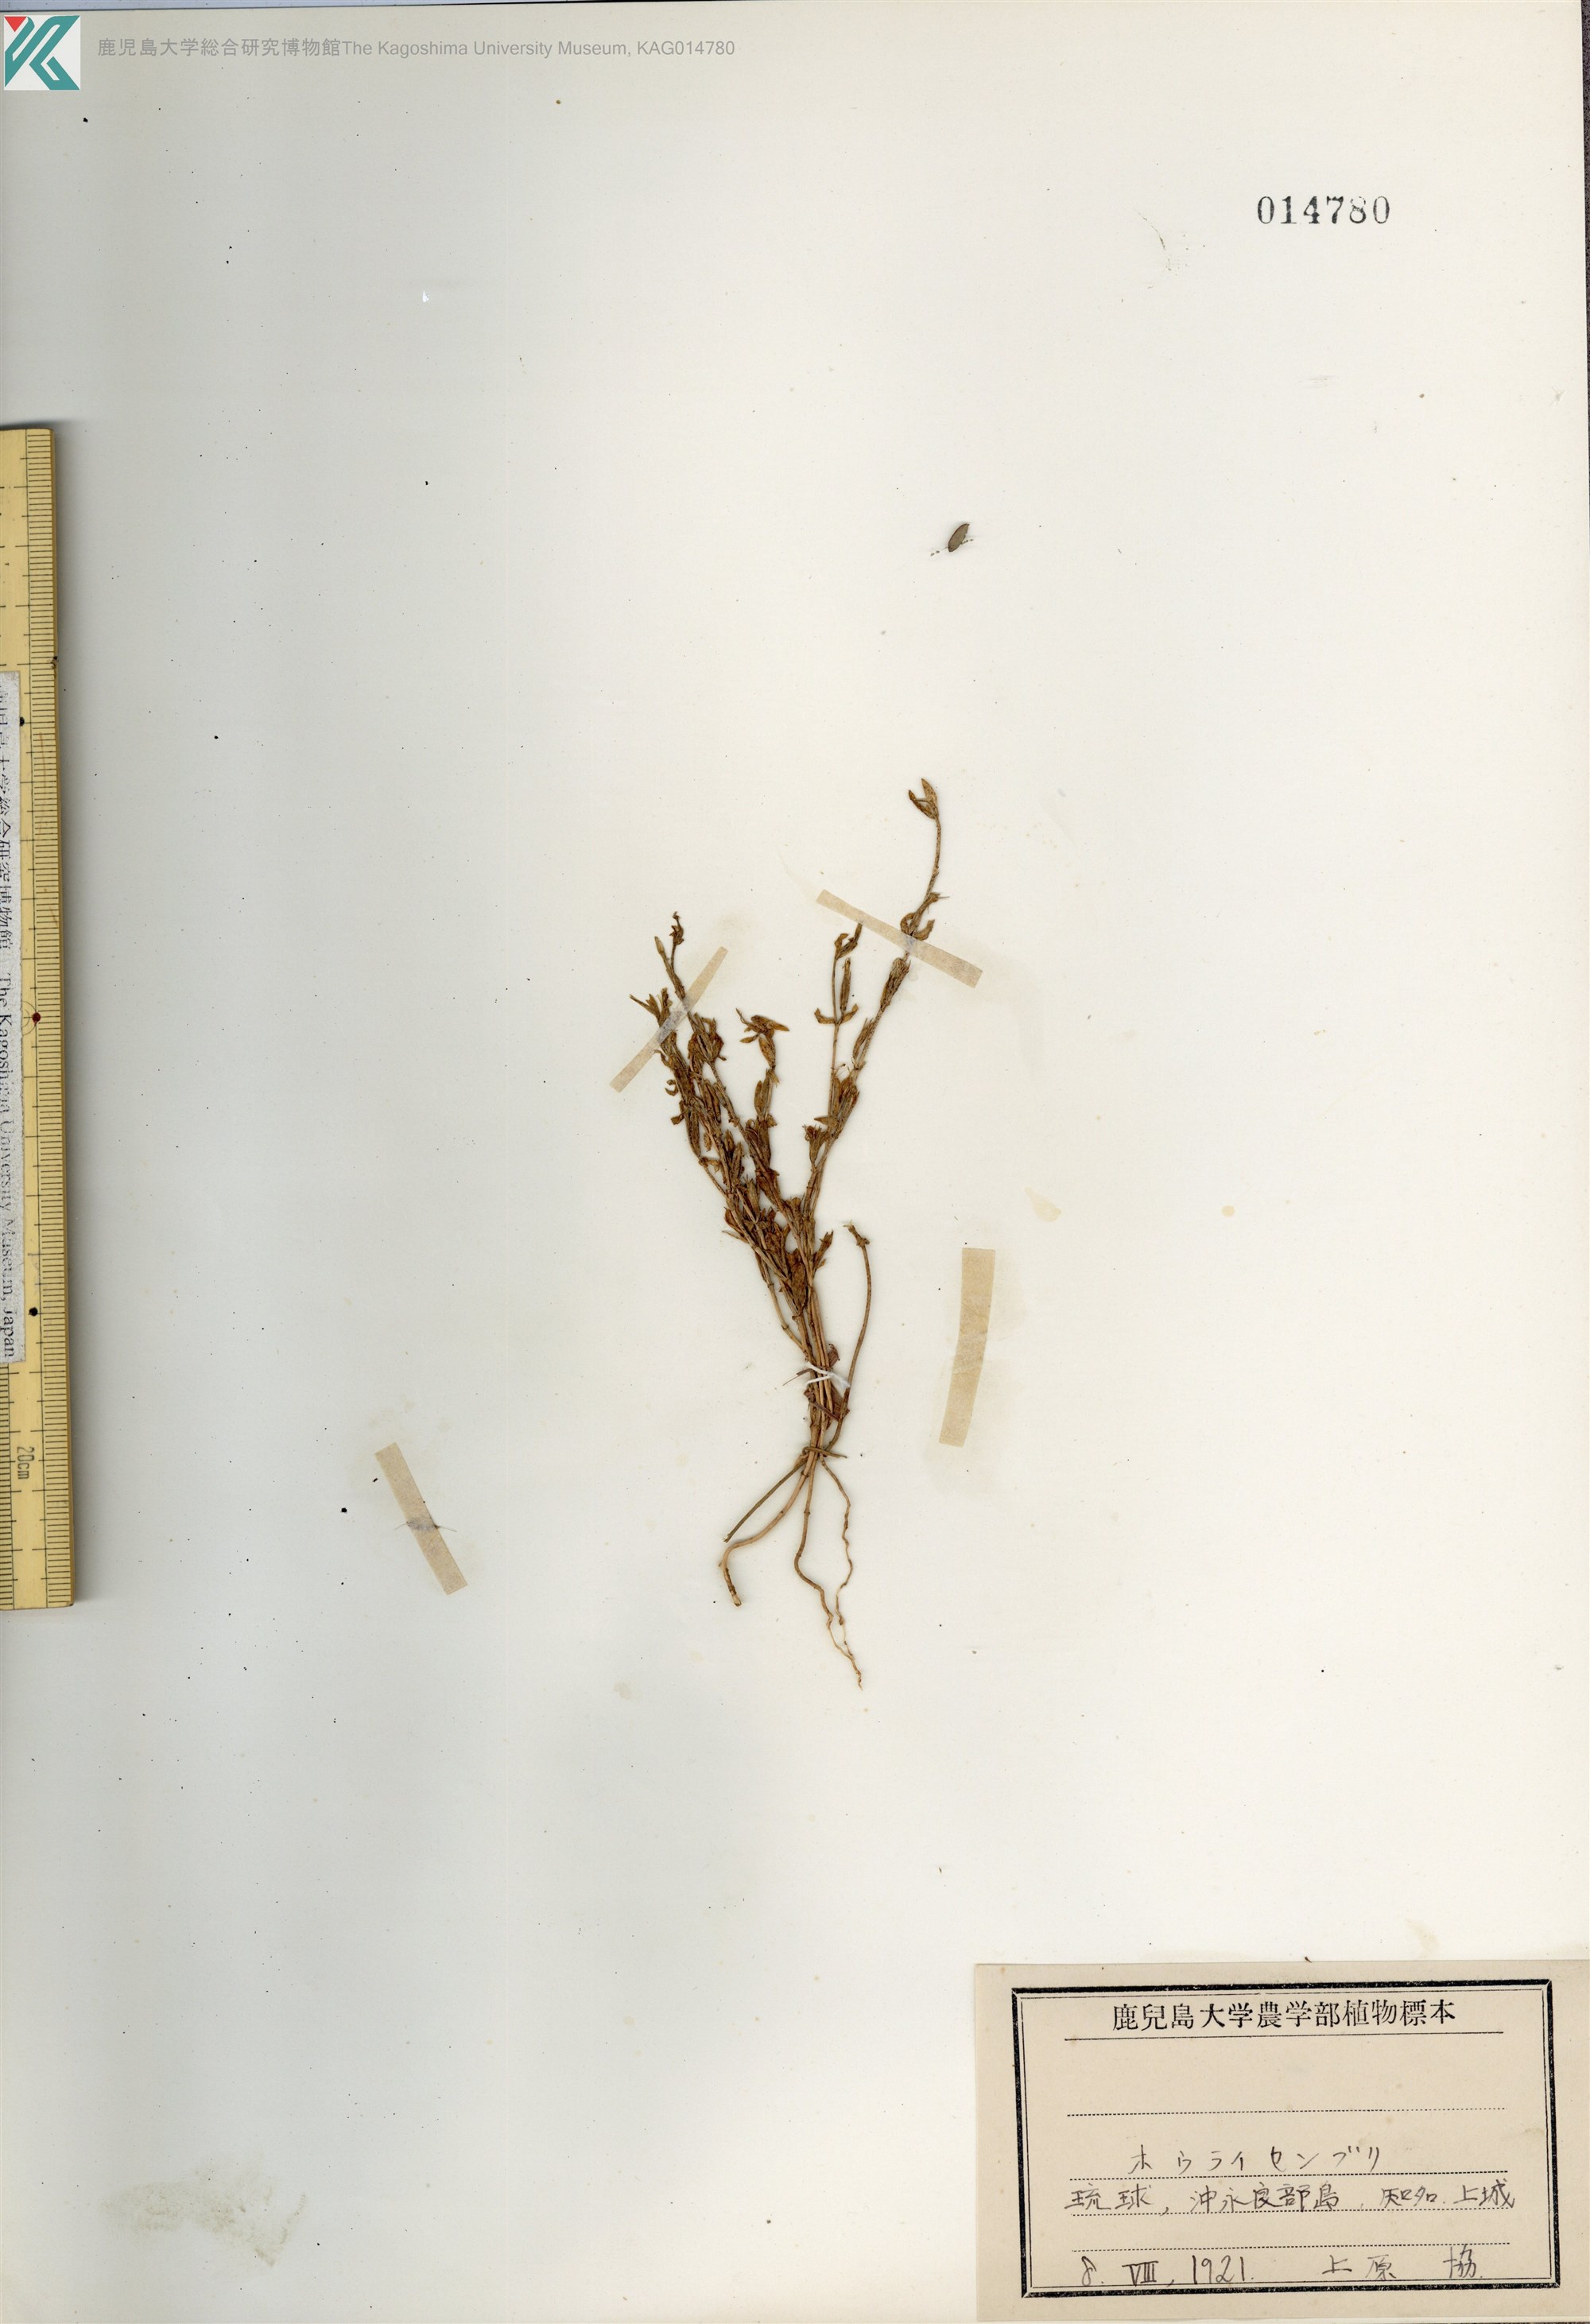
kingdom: Plantae
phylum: Tracheophyta
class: Magnoliopsida
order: Gentianales
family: Gentianaceae
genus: Schenkia
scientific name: Schenkia japonica
